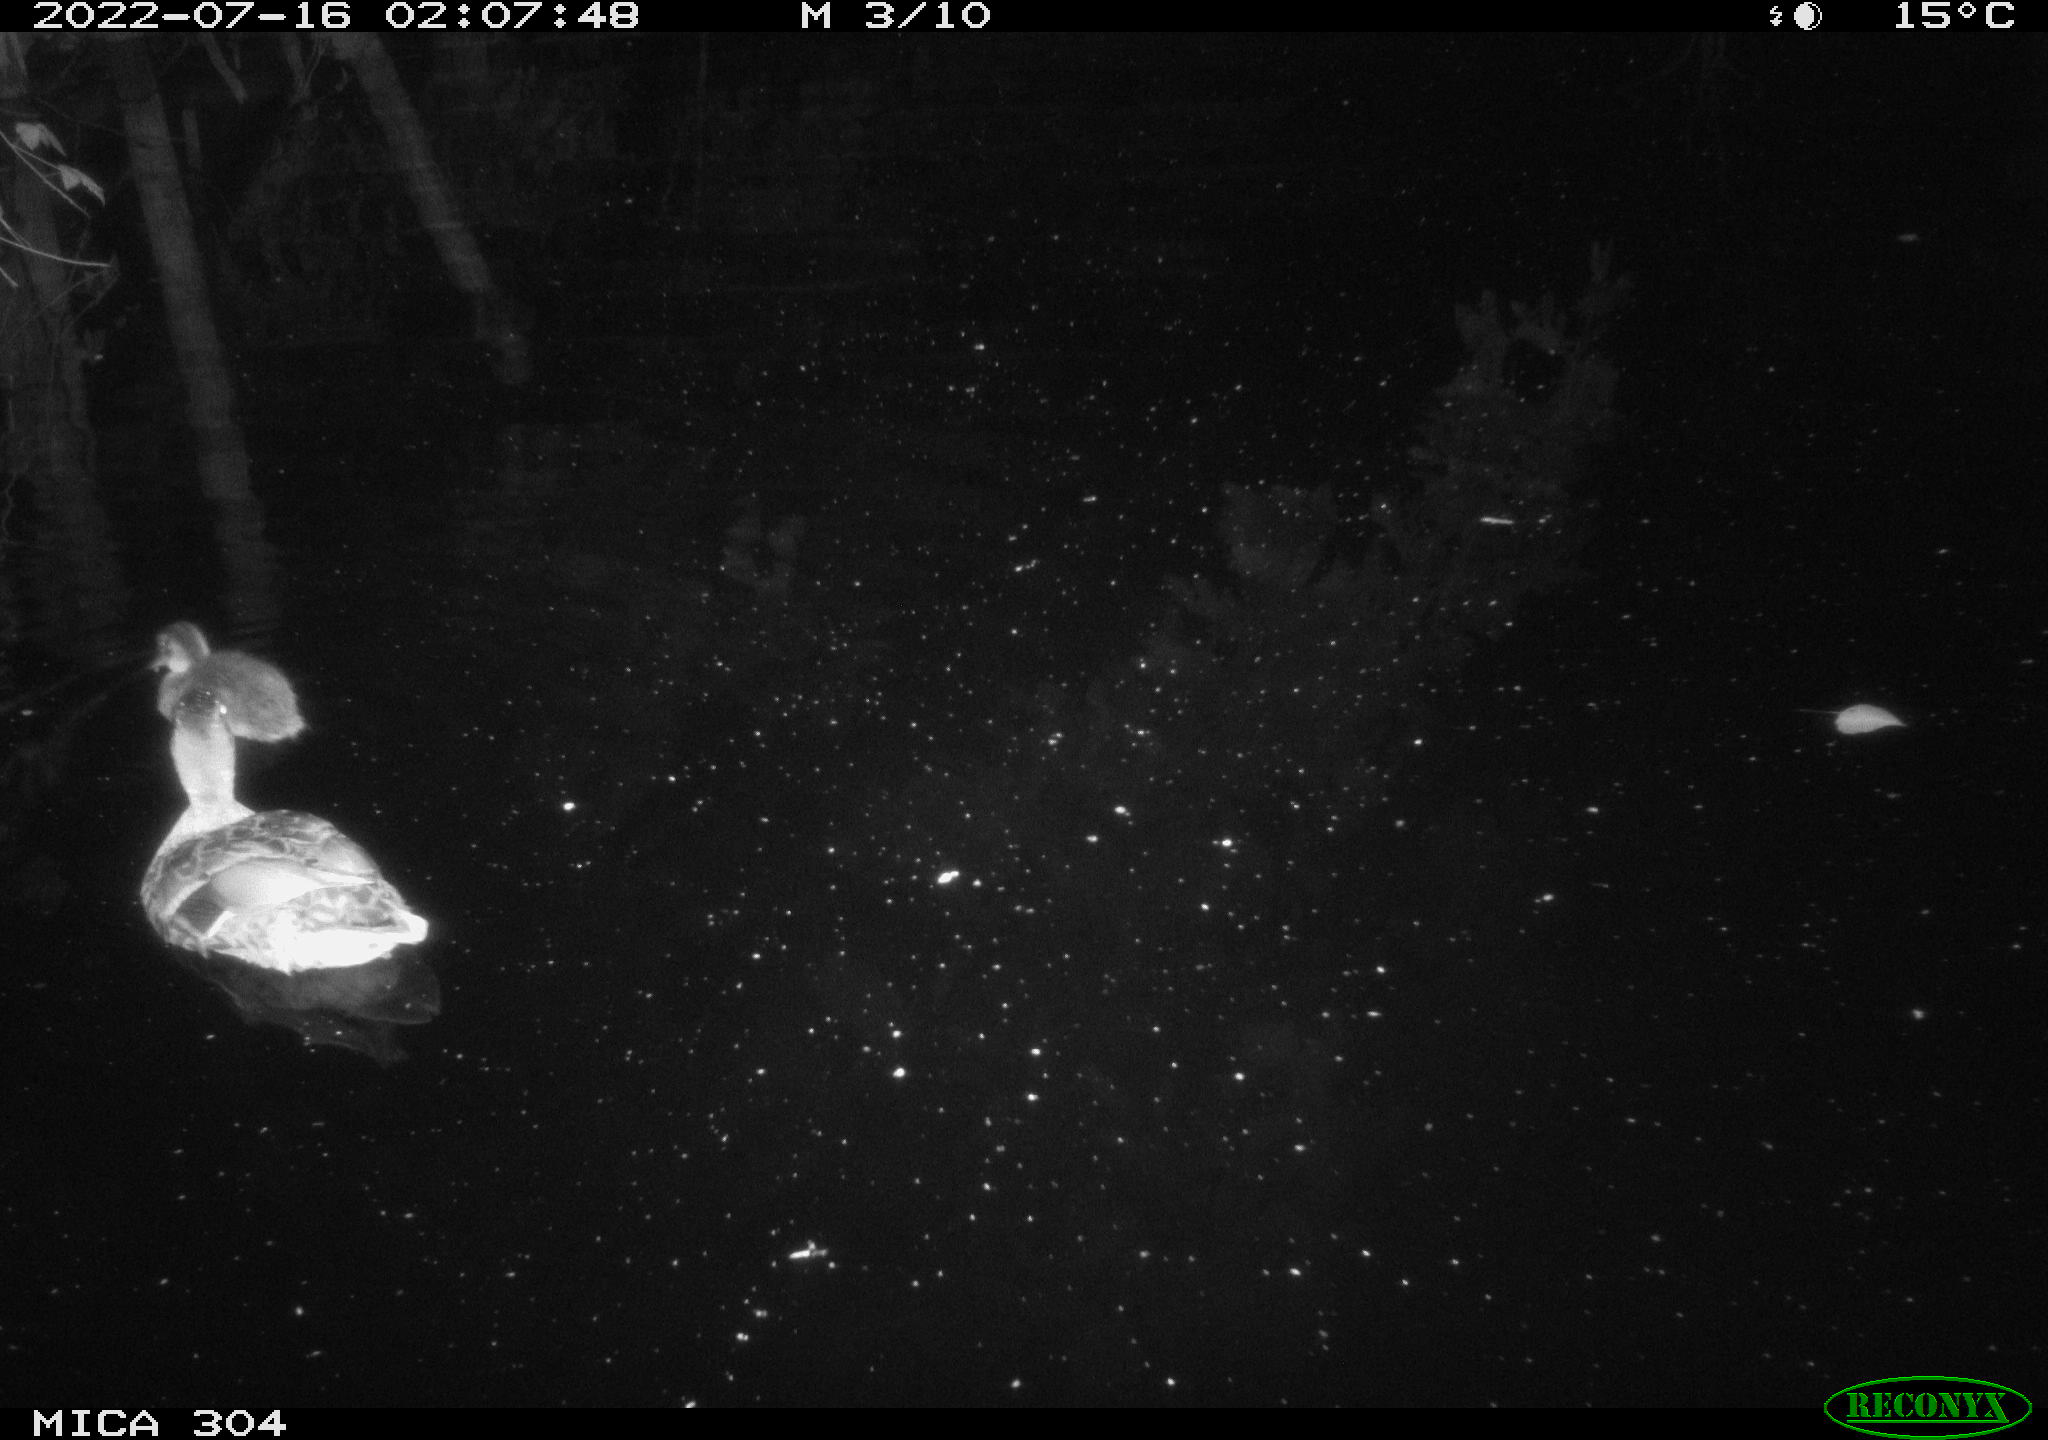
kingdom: Animalia
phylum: Chordata
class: Aves
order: Anseriformes
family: Anatidae
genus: Mareca
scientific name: Mareca strepera
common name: Gadwall
